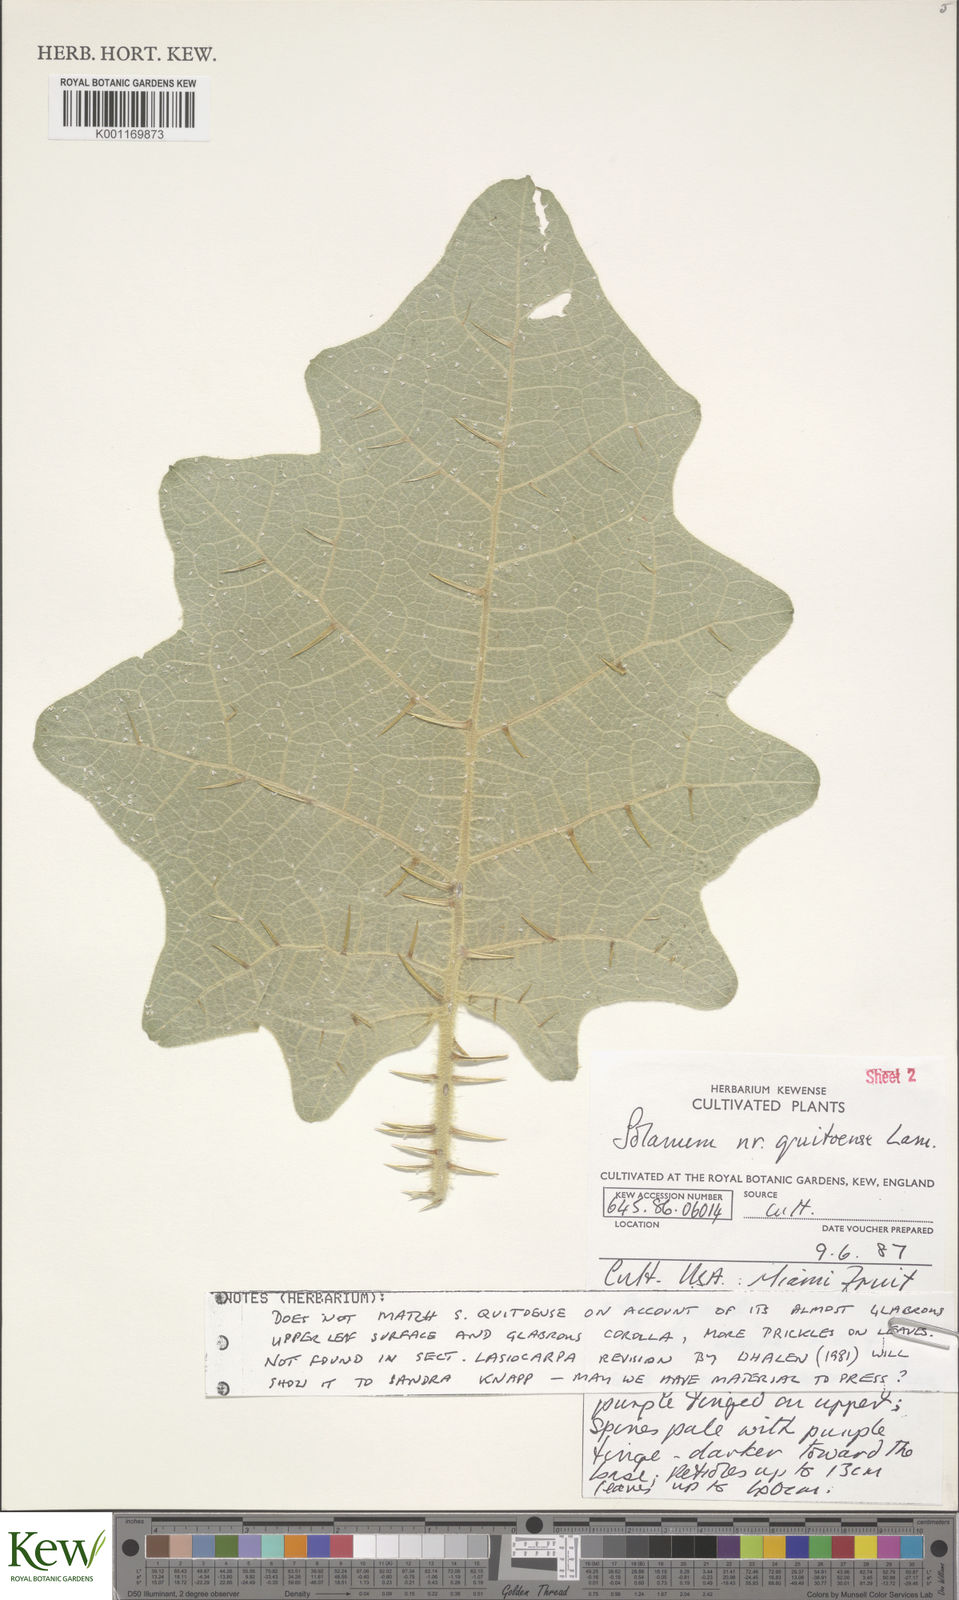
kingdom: Plantae
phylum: Tracheophyta
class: Magnoliopsida
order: Solanales
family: Solanaceae
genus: Solanum
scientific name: Solanum quitoense
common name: Quito-orange
